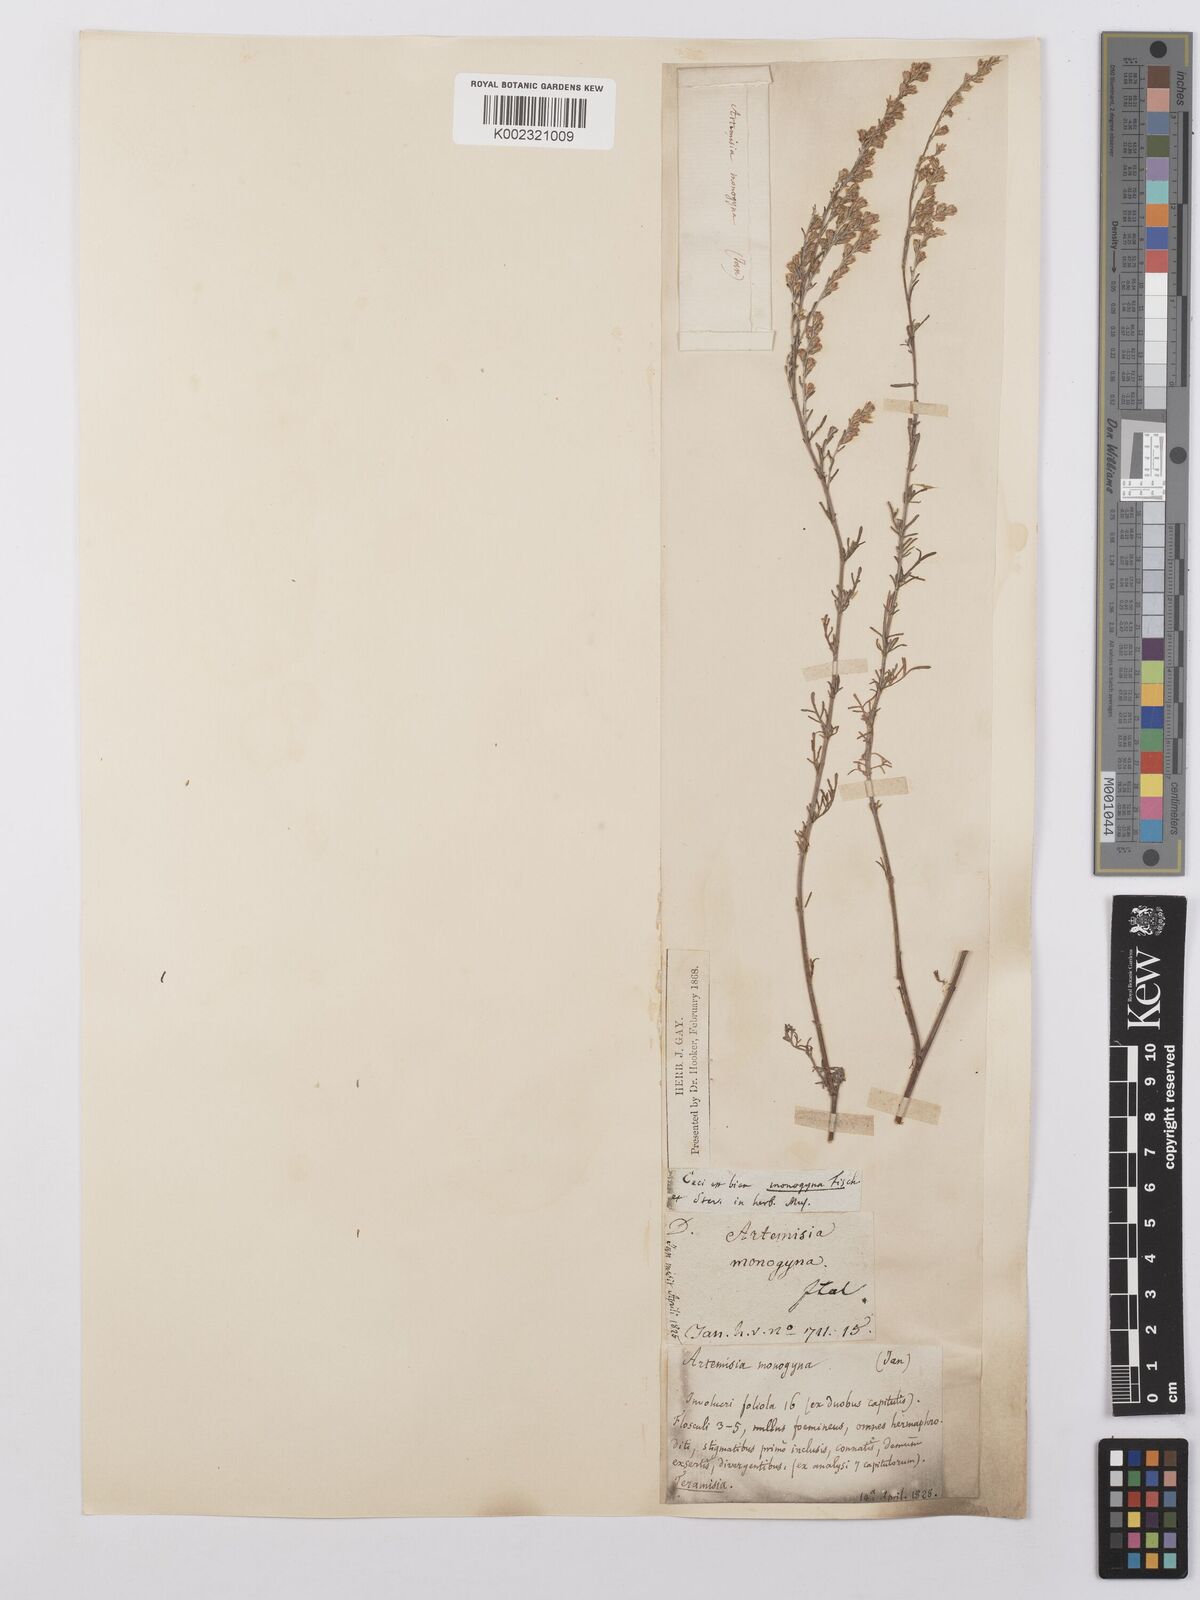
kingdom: Plantae
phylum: Tracheophyta
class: Magnoliopsida
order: Asterales
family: Asteraceae
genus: Artemisia
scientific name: Artemisia santonicum
